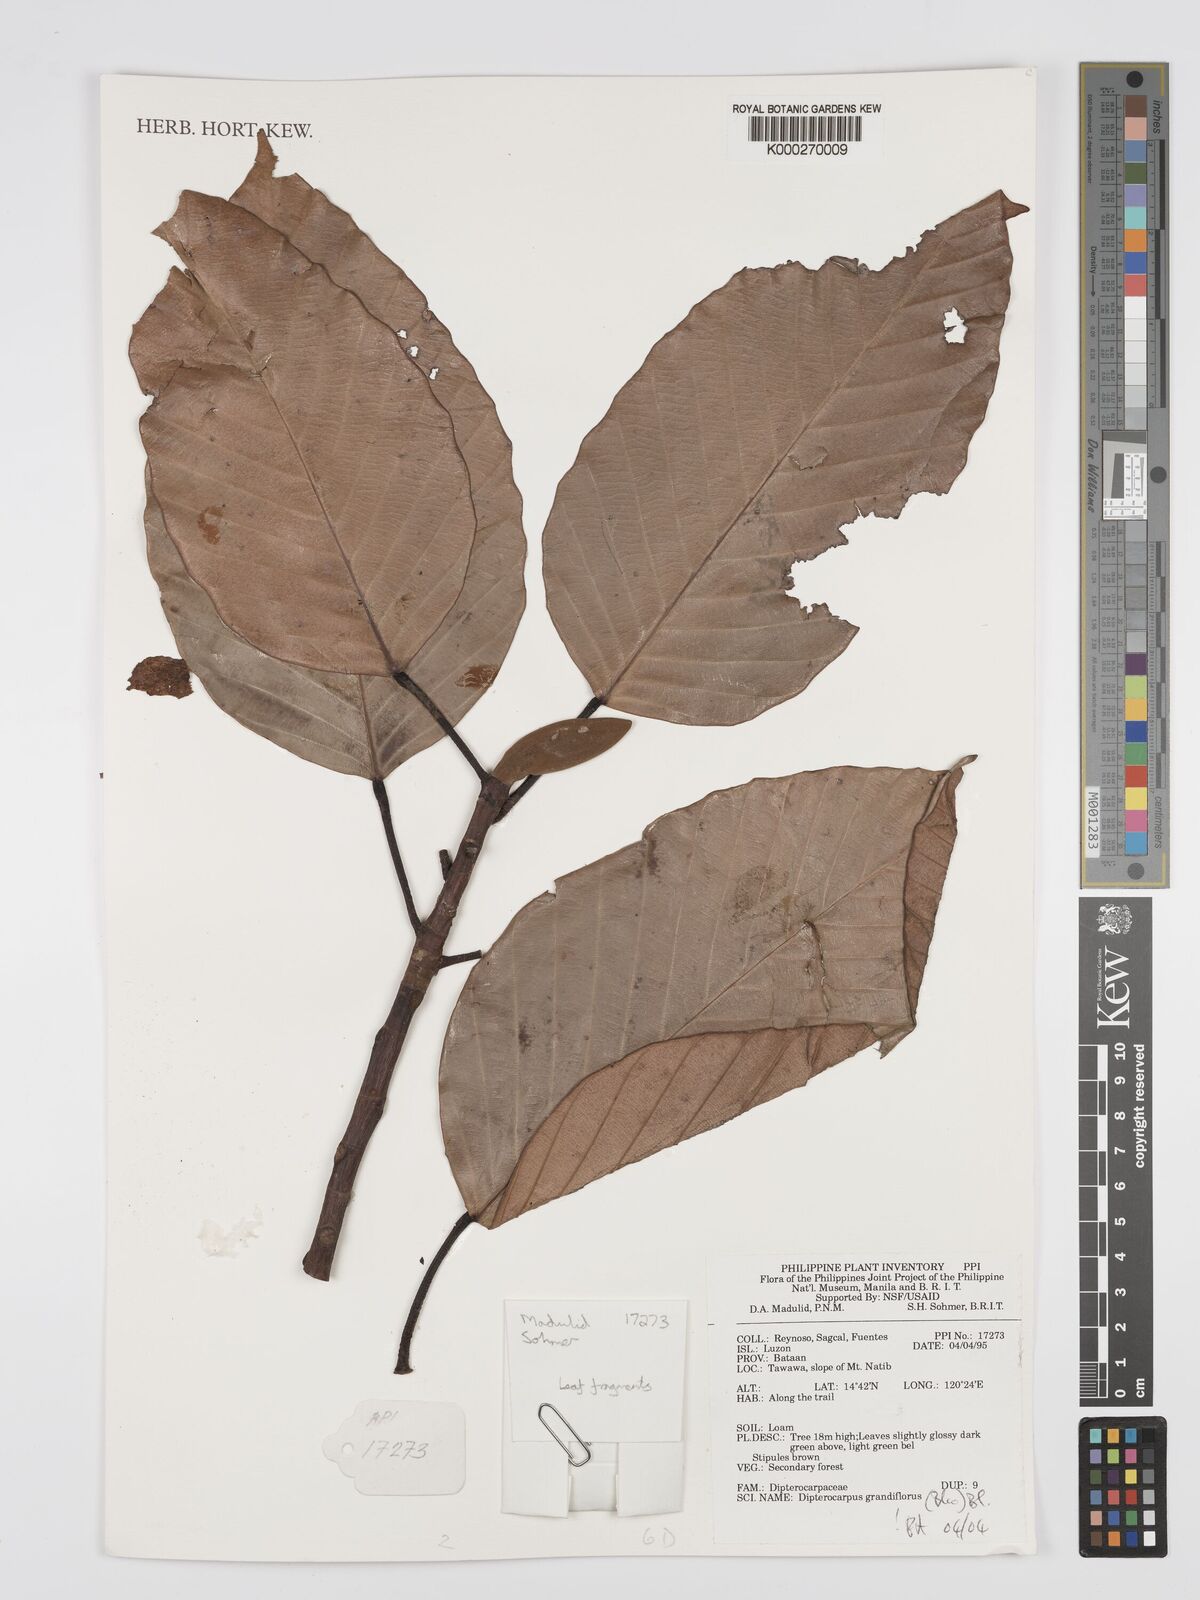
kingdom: Plantae
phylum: Tracheophyta
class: Magnoliopsida
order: Malvales
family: Dipterocarpaceae
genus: Dipterocarpus
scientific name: Dipterocarpus grandiflorus
